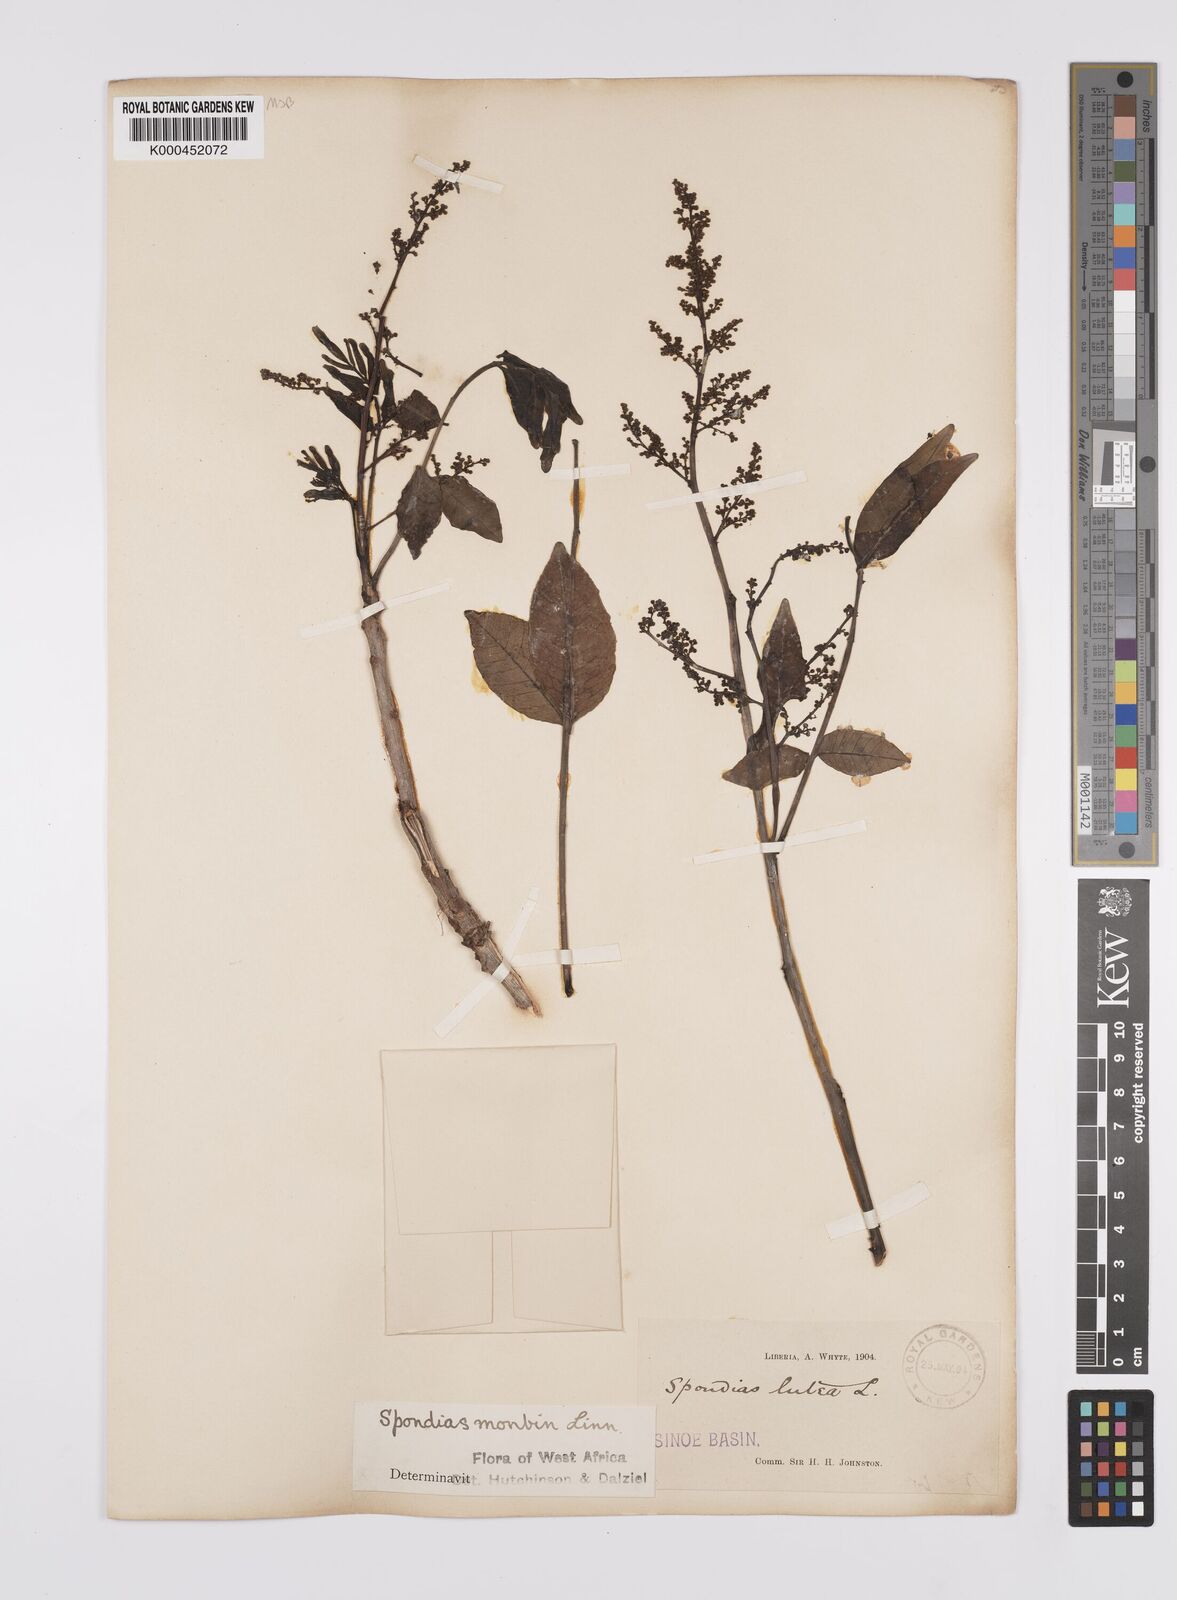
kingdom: Plantae
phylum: Tracheophyta
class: Magnoliopsida
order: Sapindales
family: Anacardiaceae
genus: Spondias
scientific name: Spondias mombin
